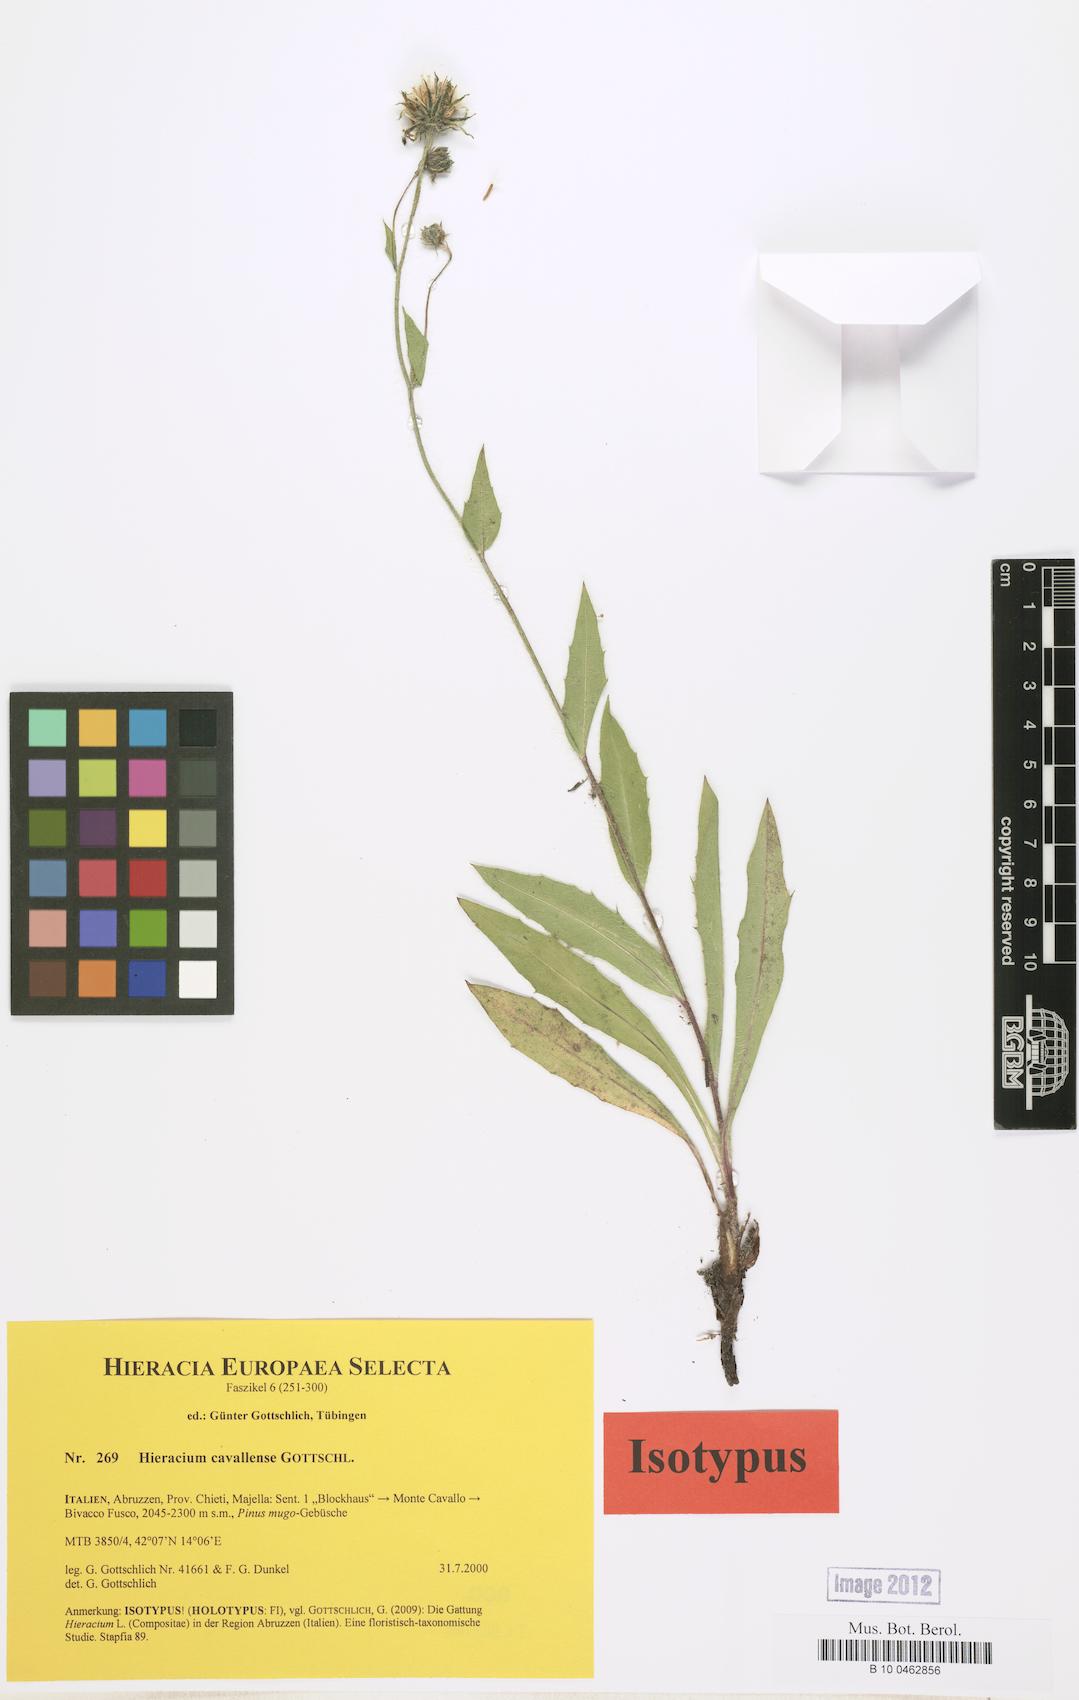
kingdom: Plantae
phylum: Tracheophyta
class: Magnoliopsida
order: Asterales
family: Asteraceae
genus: Hieracium
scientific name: Hieracium cavallense
